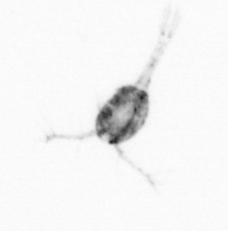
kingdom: Animalia
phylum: Arthropoda
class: Copepoda
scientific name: Copepoda
